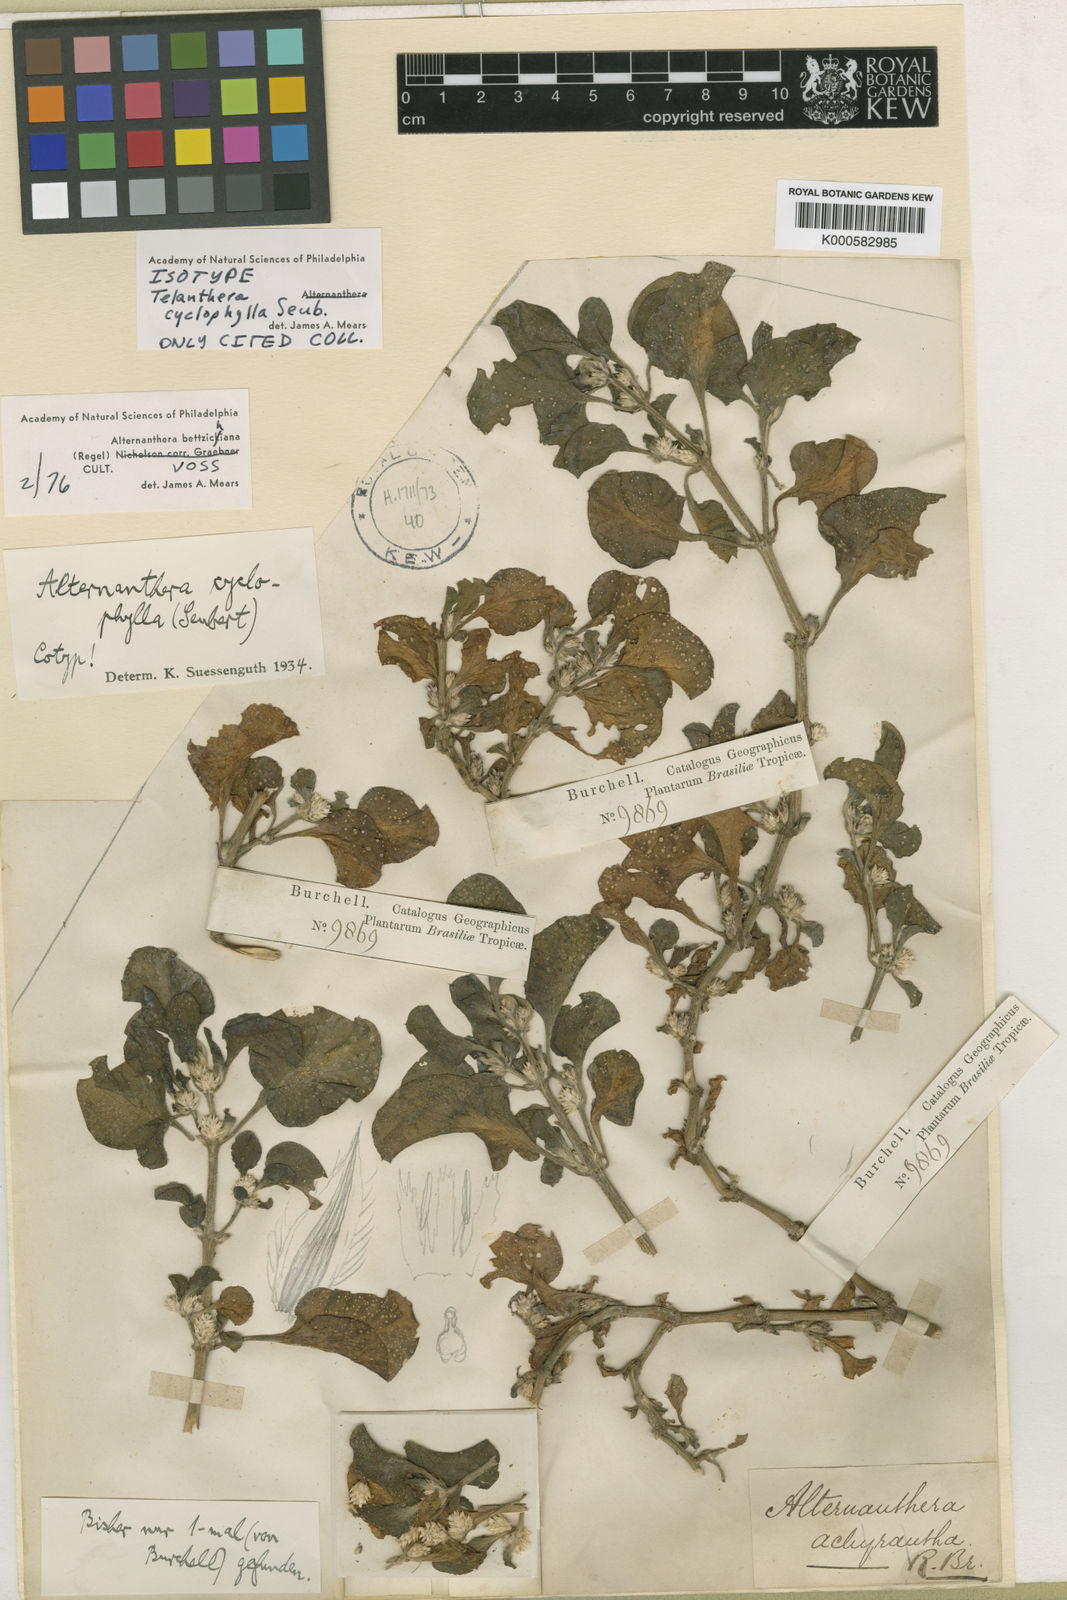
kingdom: Plantae
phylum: Tracheophyta
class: Magnoliopsida
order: Caryophyllales
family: Amaranthaceae
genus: Alternanthera
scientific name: Alternanthera
